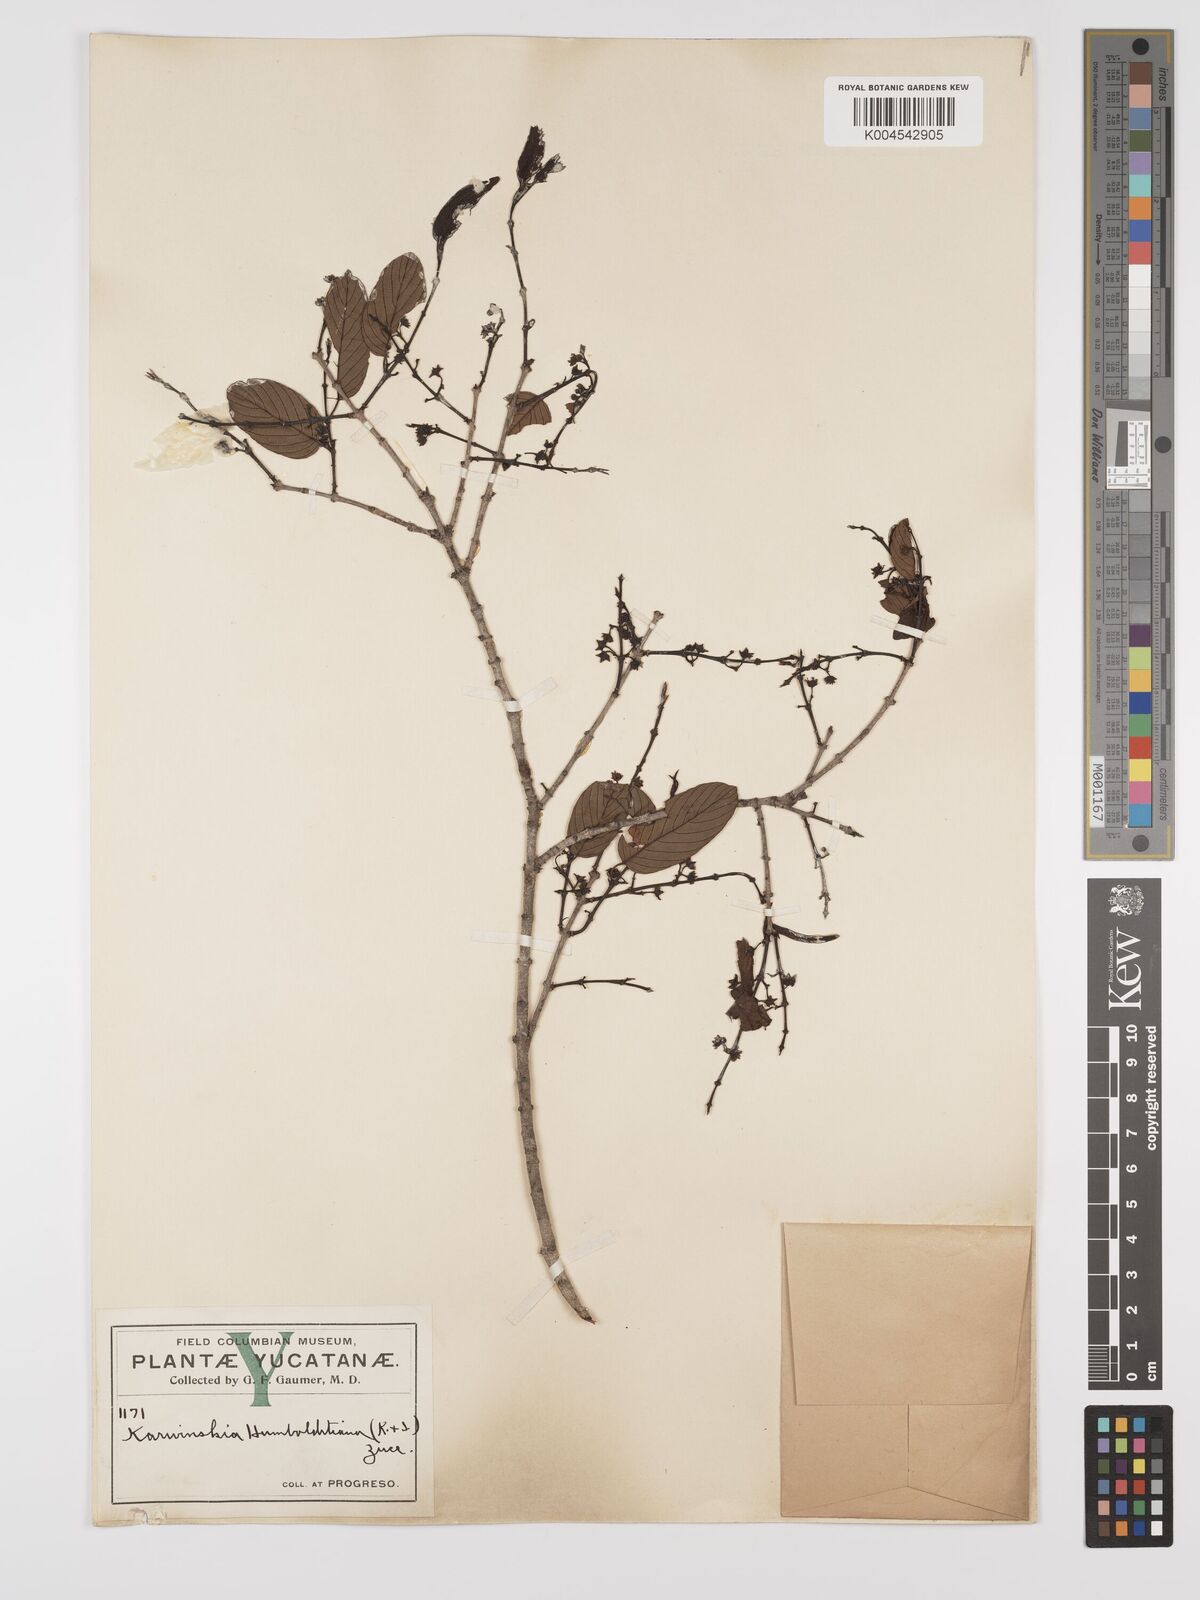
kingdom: Plantae
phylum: Tracheophyta
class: Magnoliopsida
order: Rosales
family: Rhamnaceae
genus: Karwinskia
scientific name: Karwinskia humboldtiana
